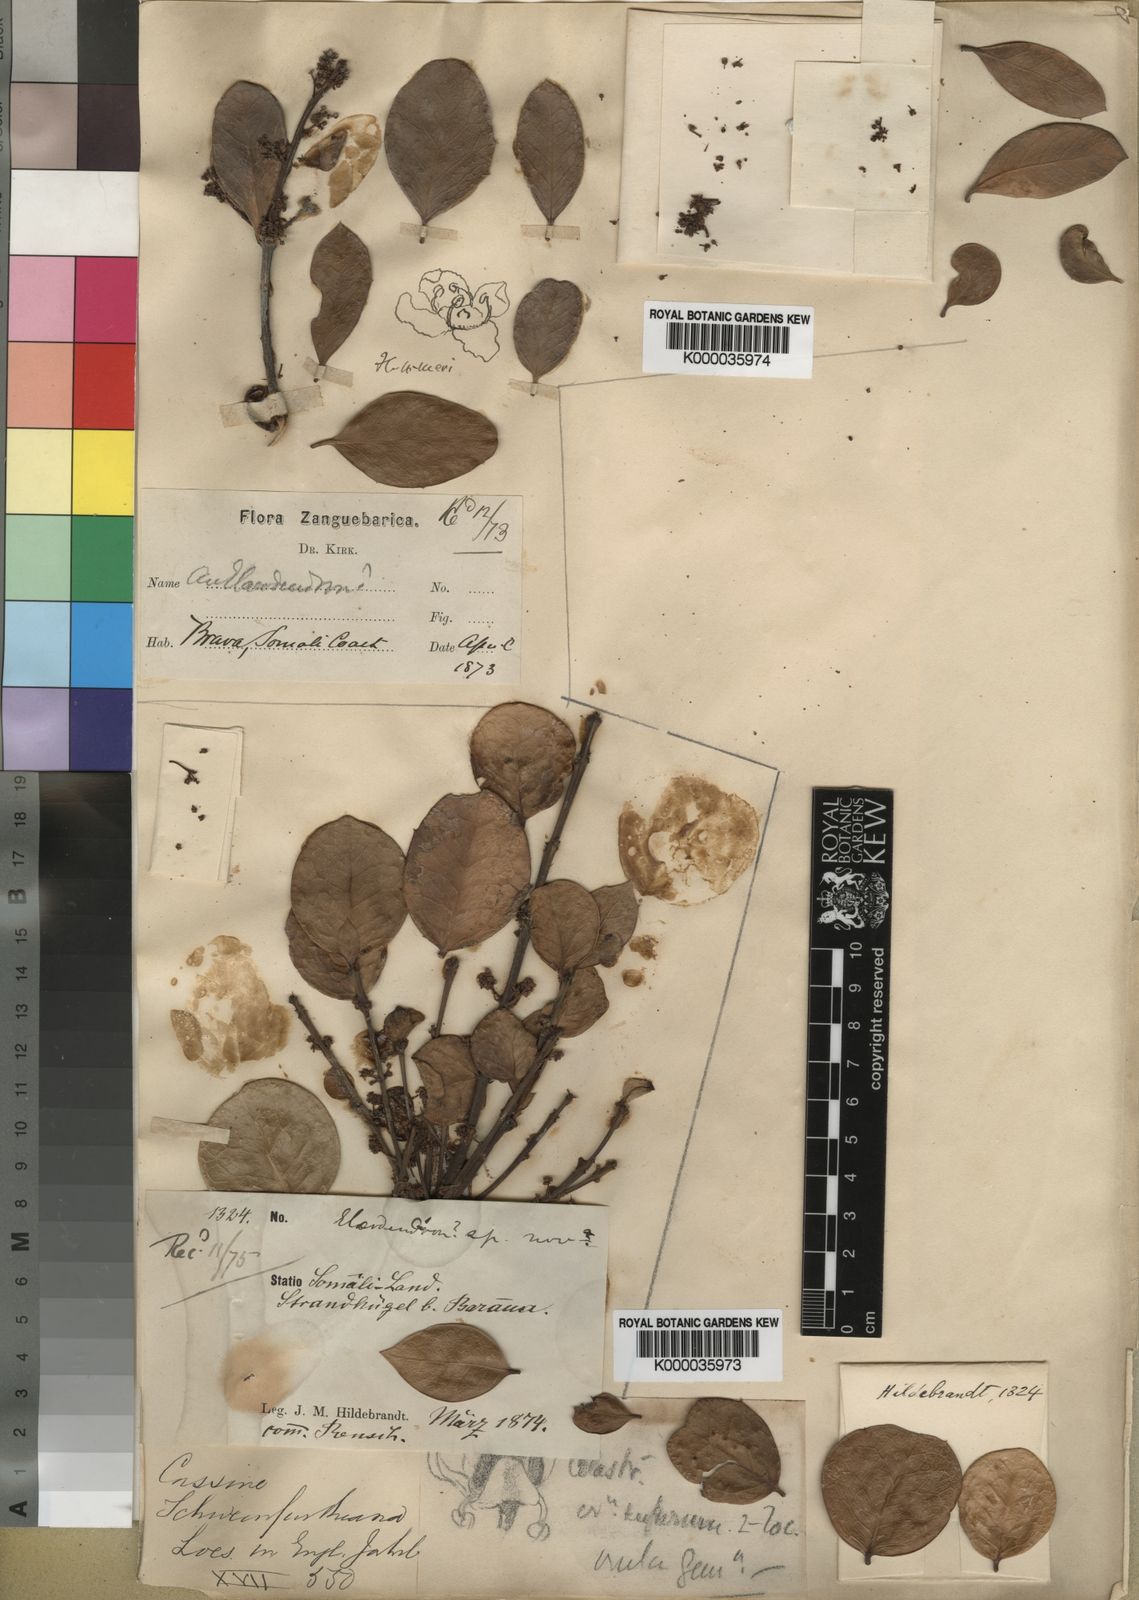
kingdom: Plantae
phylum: Tracheophyta
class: Magnoliopsida
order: Celastrales
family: Celastraceae
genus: Elaeodendron
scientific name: Elaeodendron schweinfurthianum
